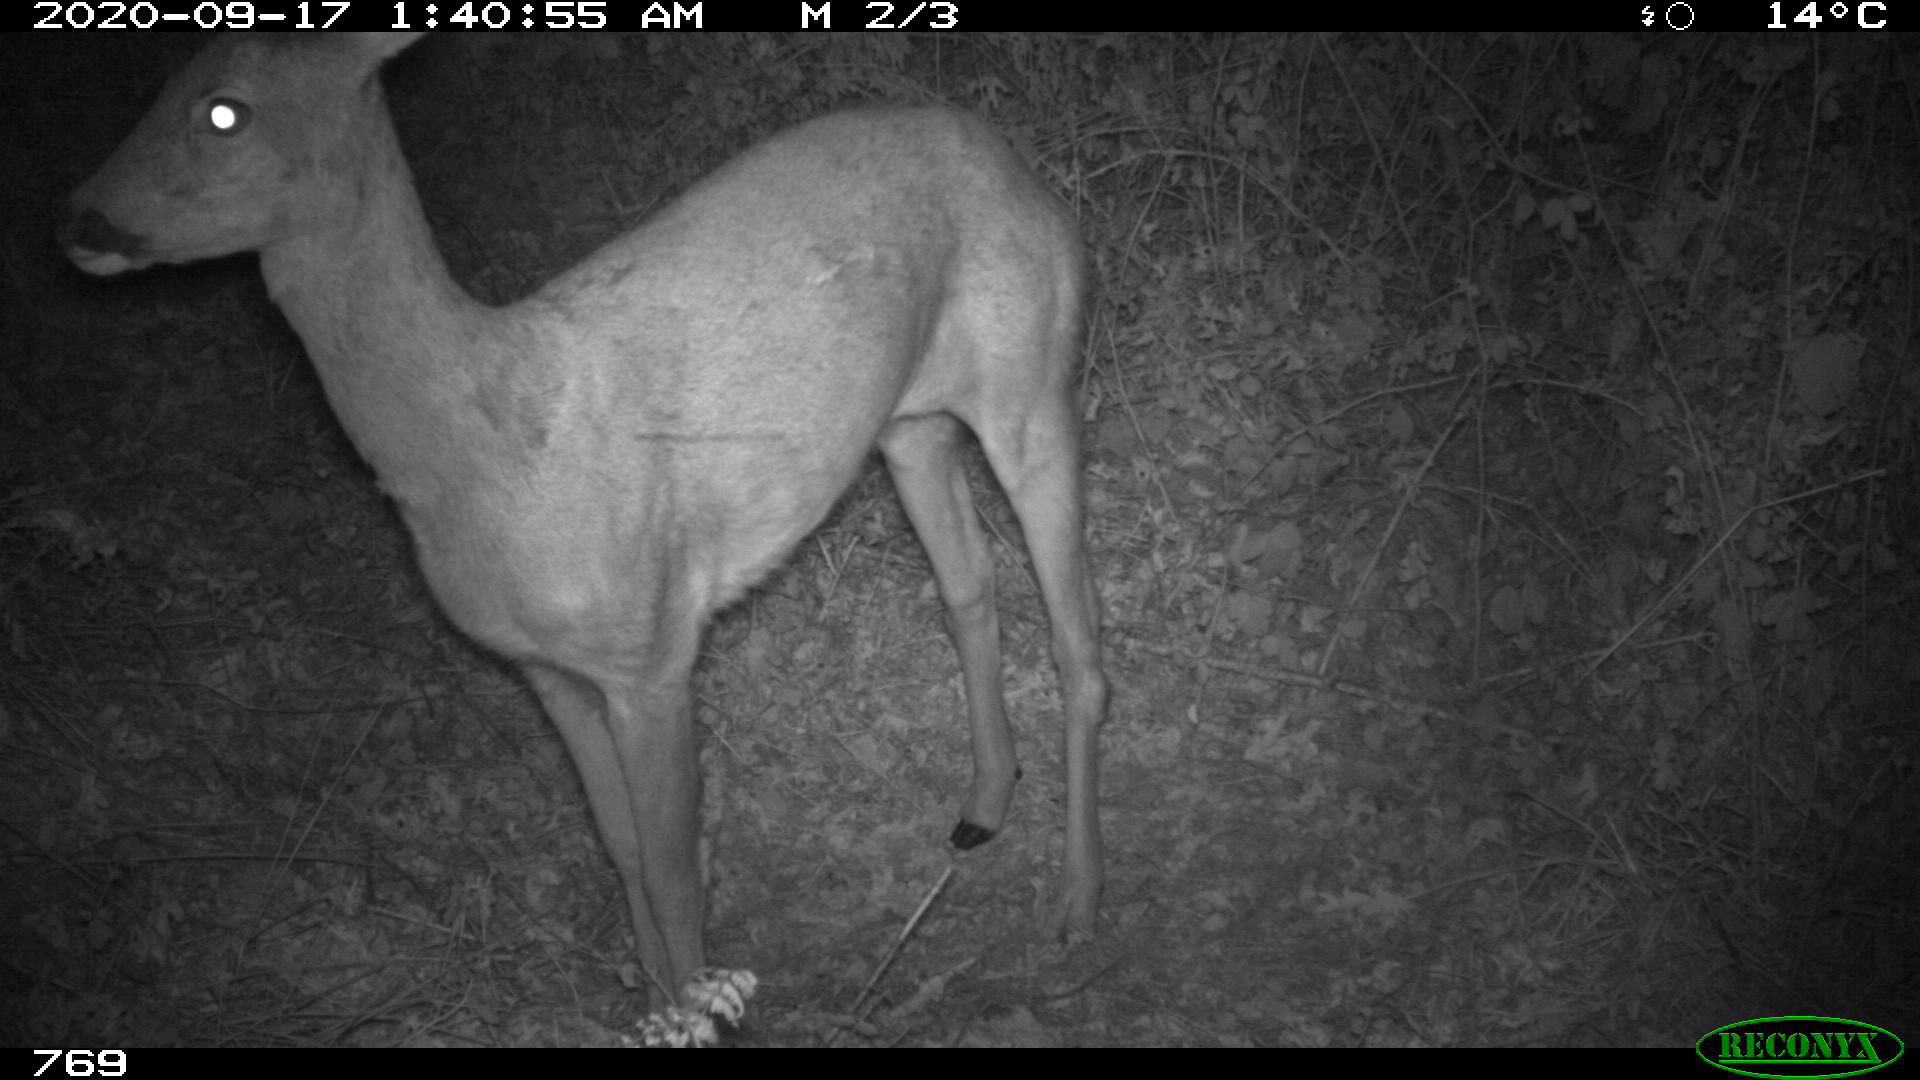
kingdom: Animalia
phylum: Chordata
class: Mammalia
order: Artiodactyla
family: Cervidae
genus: Capreolus
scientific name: Capreolus capreolus
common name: Western roe deer
